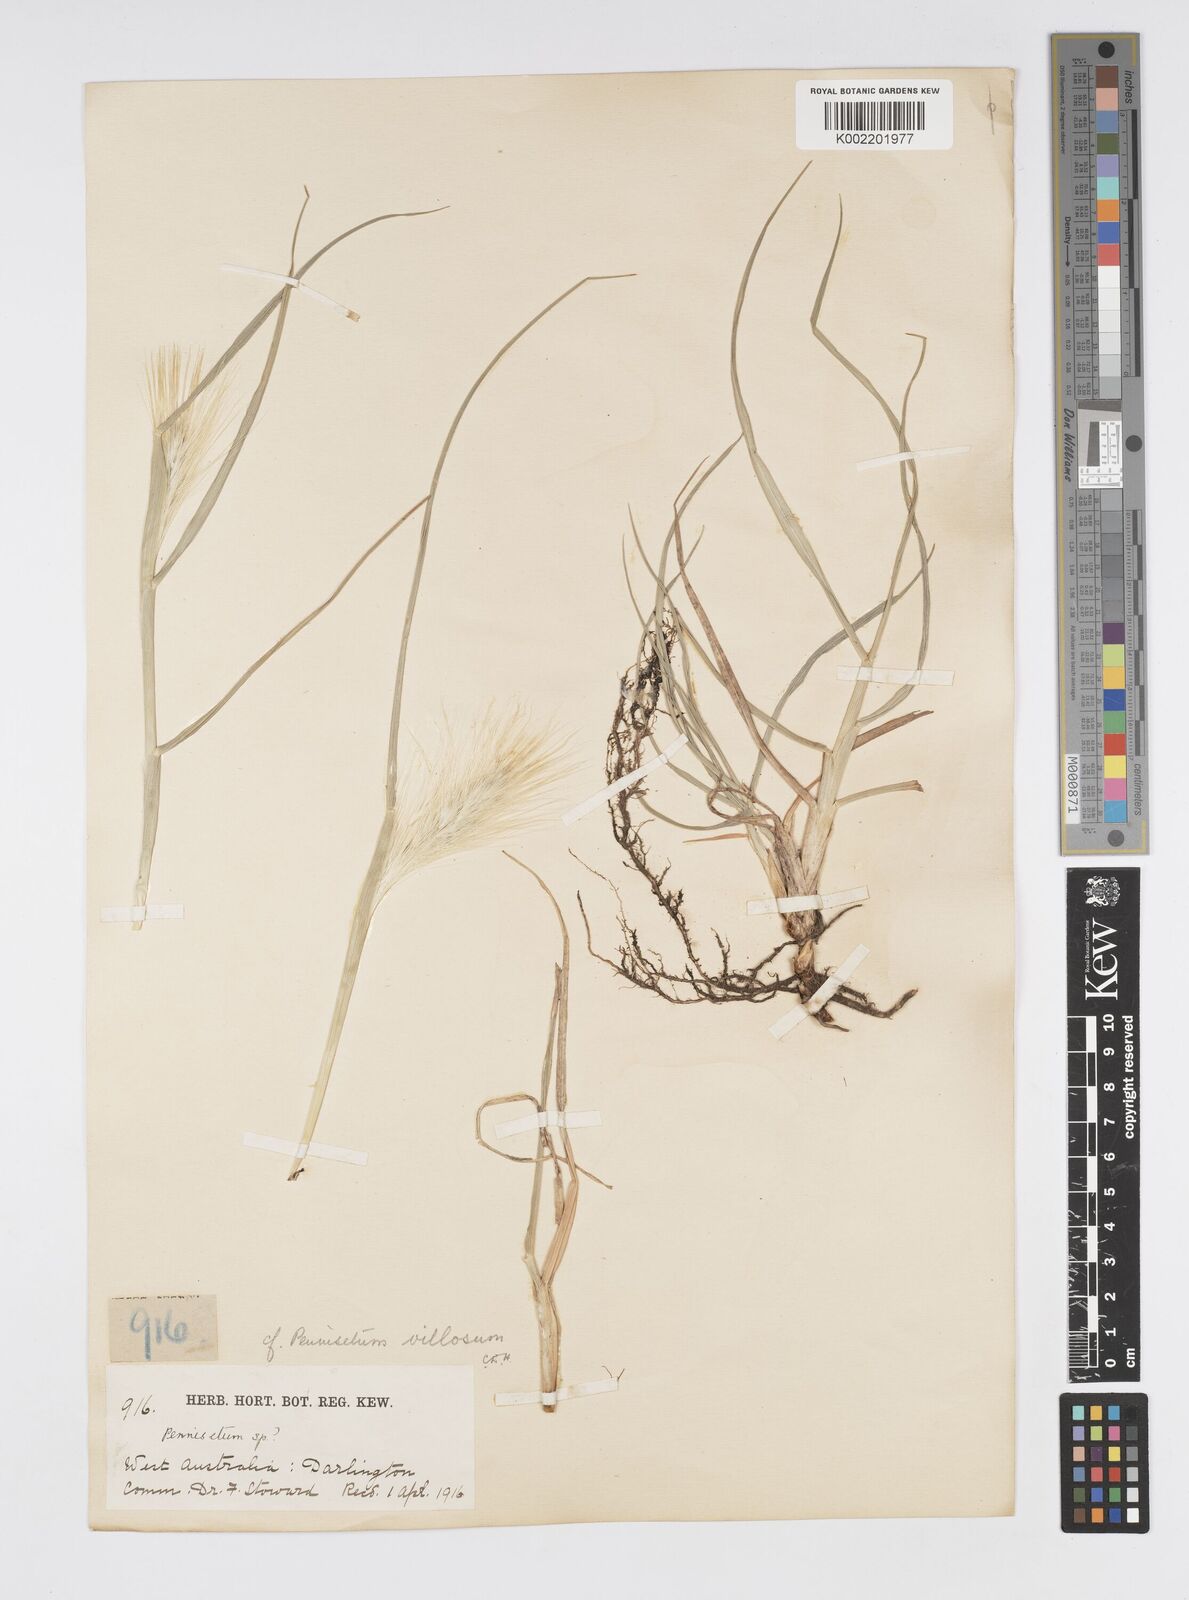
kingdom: Plantae
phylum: Tracheophyta
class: Liliopsida
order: Poales
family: Poaceae
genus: Cenchrus
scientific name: Cenchrus longisetus
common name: Feathertop
